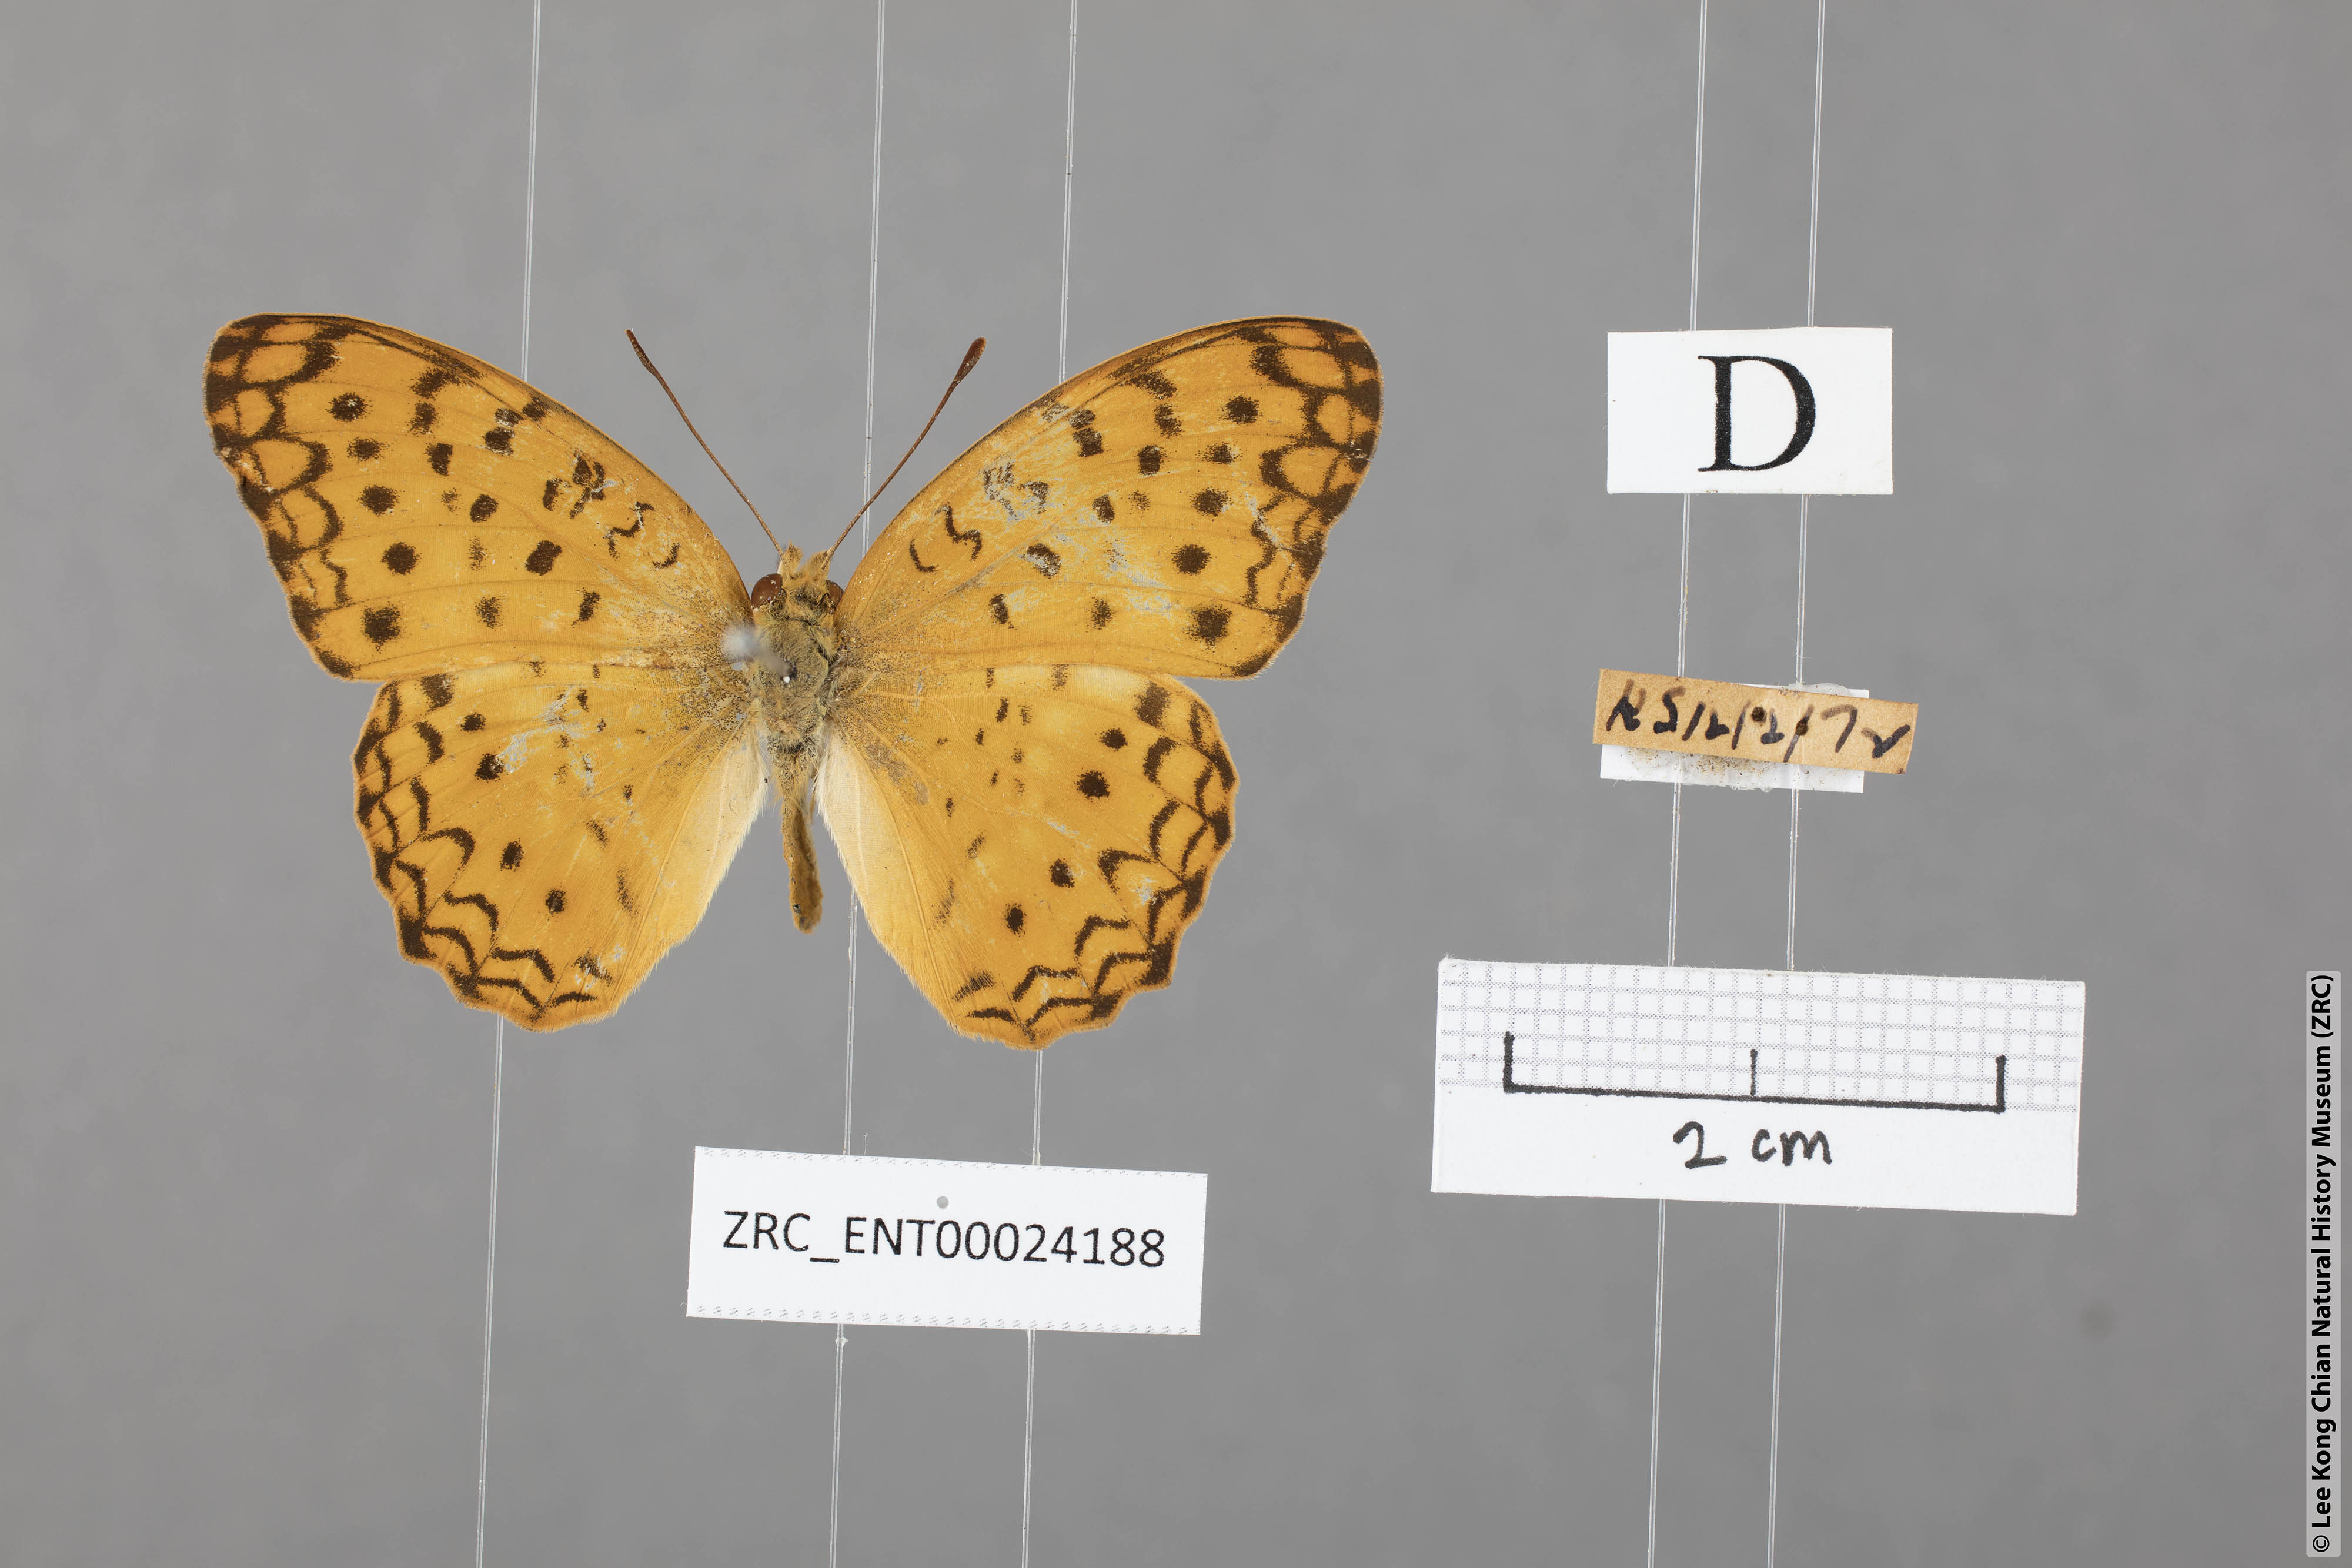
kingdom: Animalia
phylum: Arthropoda
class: Insecta
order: Lepidoptera
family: Nymphalidae
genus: Phalanta
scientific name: Phalanta phalantha
